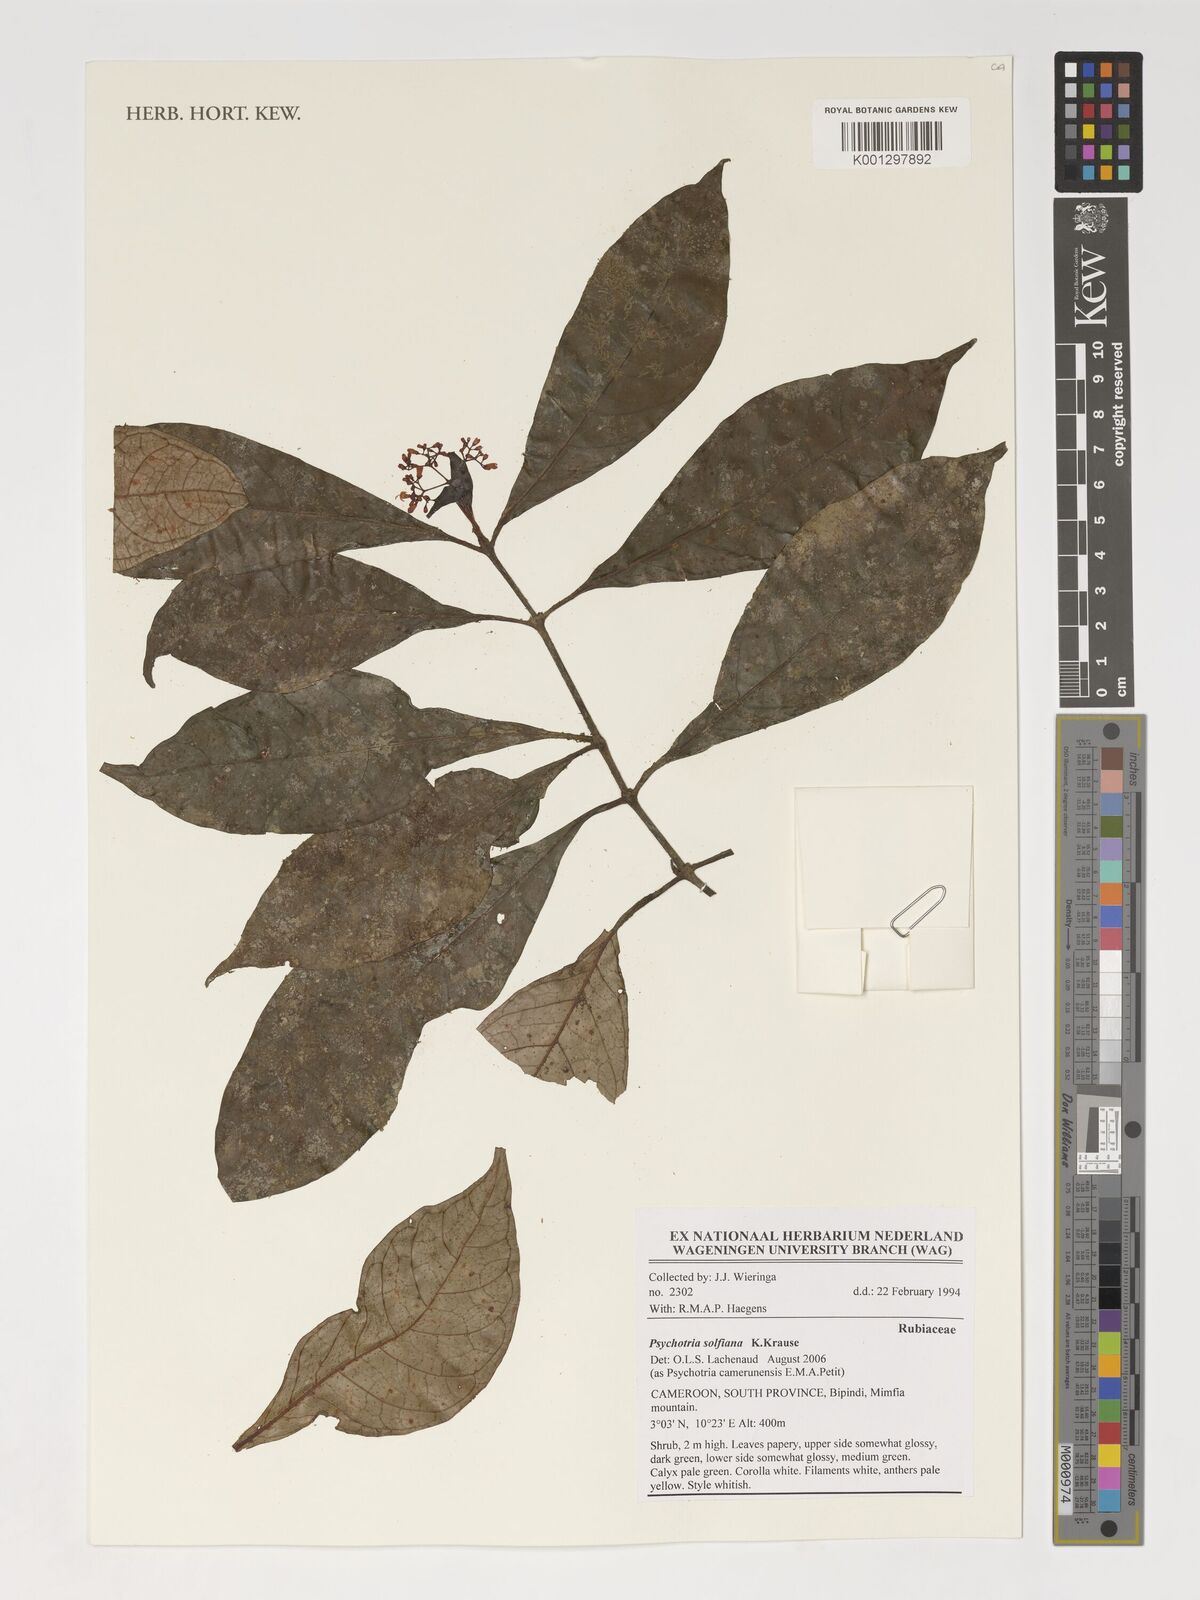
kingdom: Plantae
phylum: Tracheophyta
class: Magnoliopsida
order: Gentianales
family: Rubiaceae
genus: Psychotria
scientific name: Psychotria solfiana
